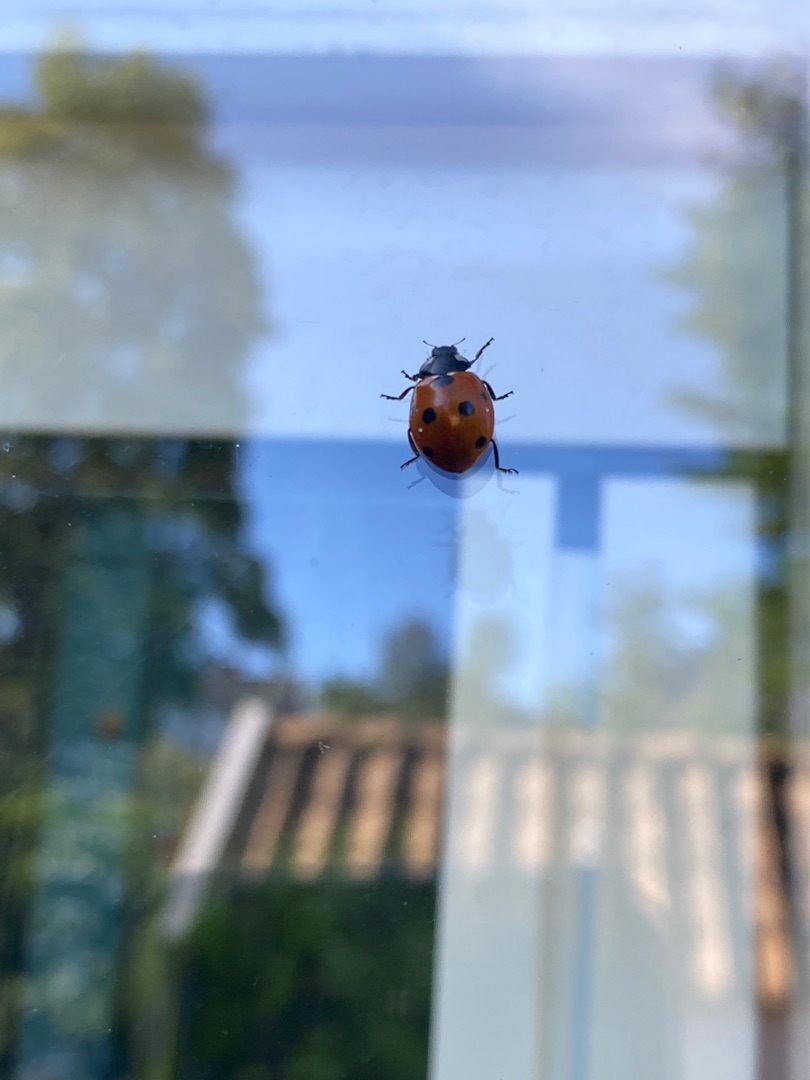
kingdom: Animalia
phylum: Arthropoda
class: Insecta
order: Coleoptera
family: Coccinellidae
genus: Coccinella
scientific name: Coccinella septempunctata
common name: Syvplettet mariehøne
